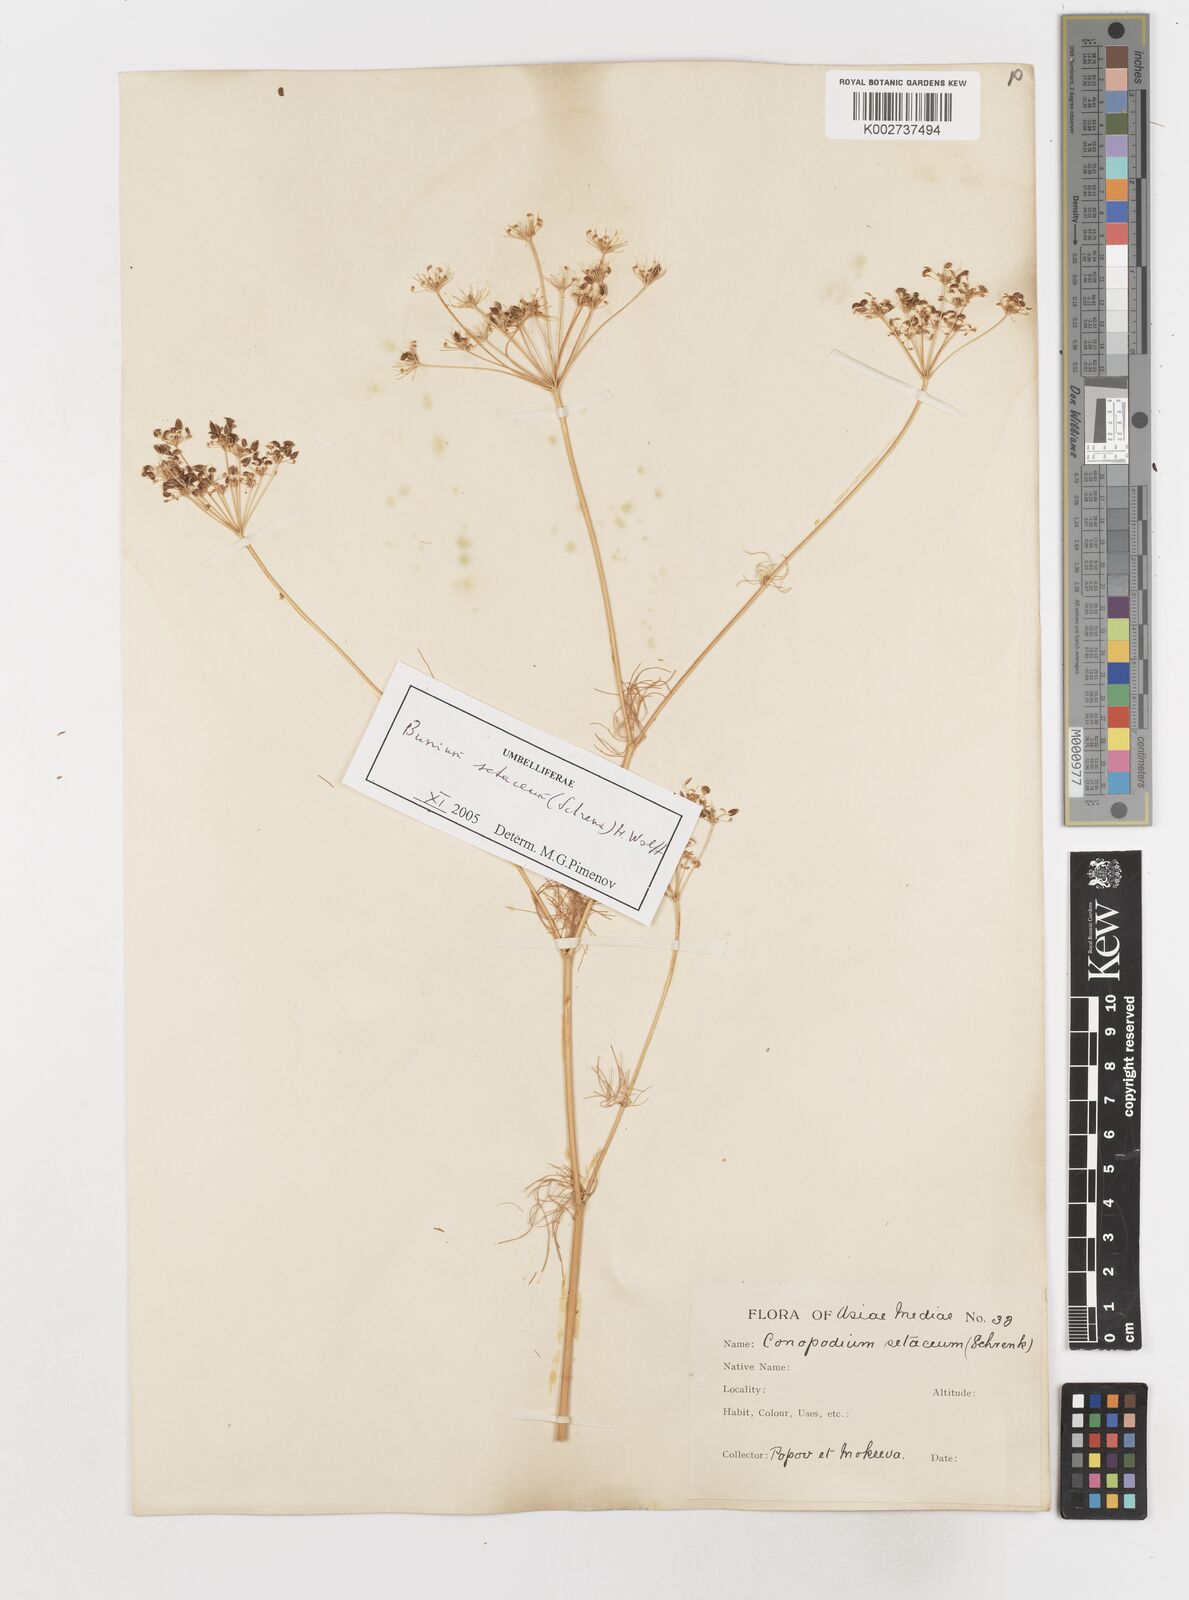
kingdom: Plantae
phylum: Tracheophyta
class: Magnoliopsida
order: Apiales
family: Apiaceae
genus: Elwendia
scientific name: Elwendia setacea
